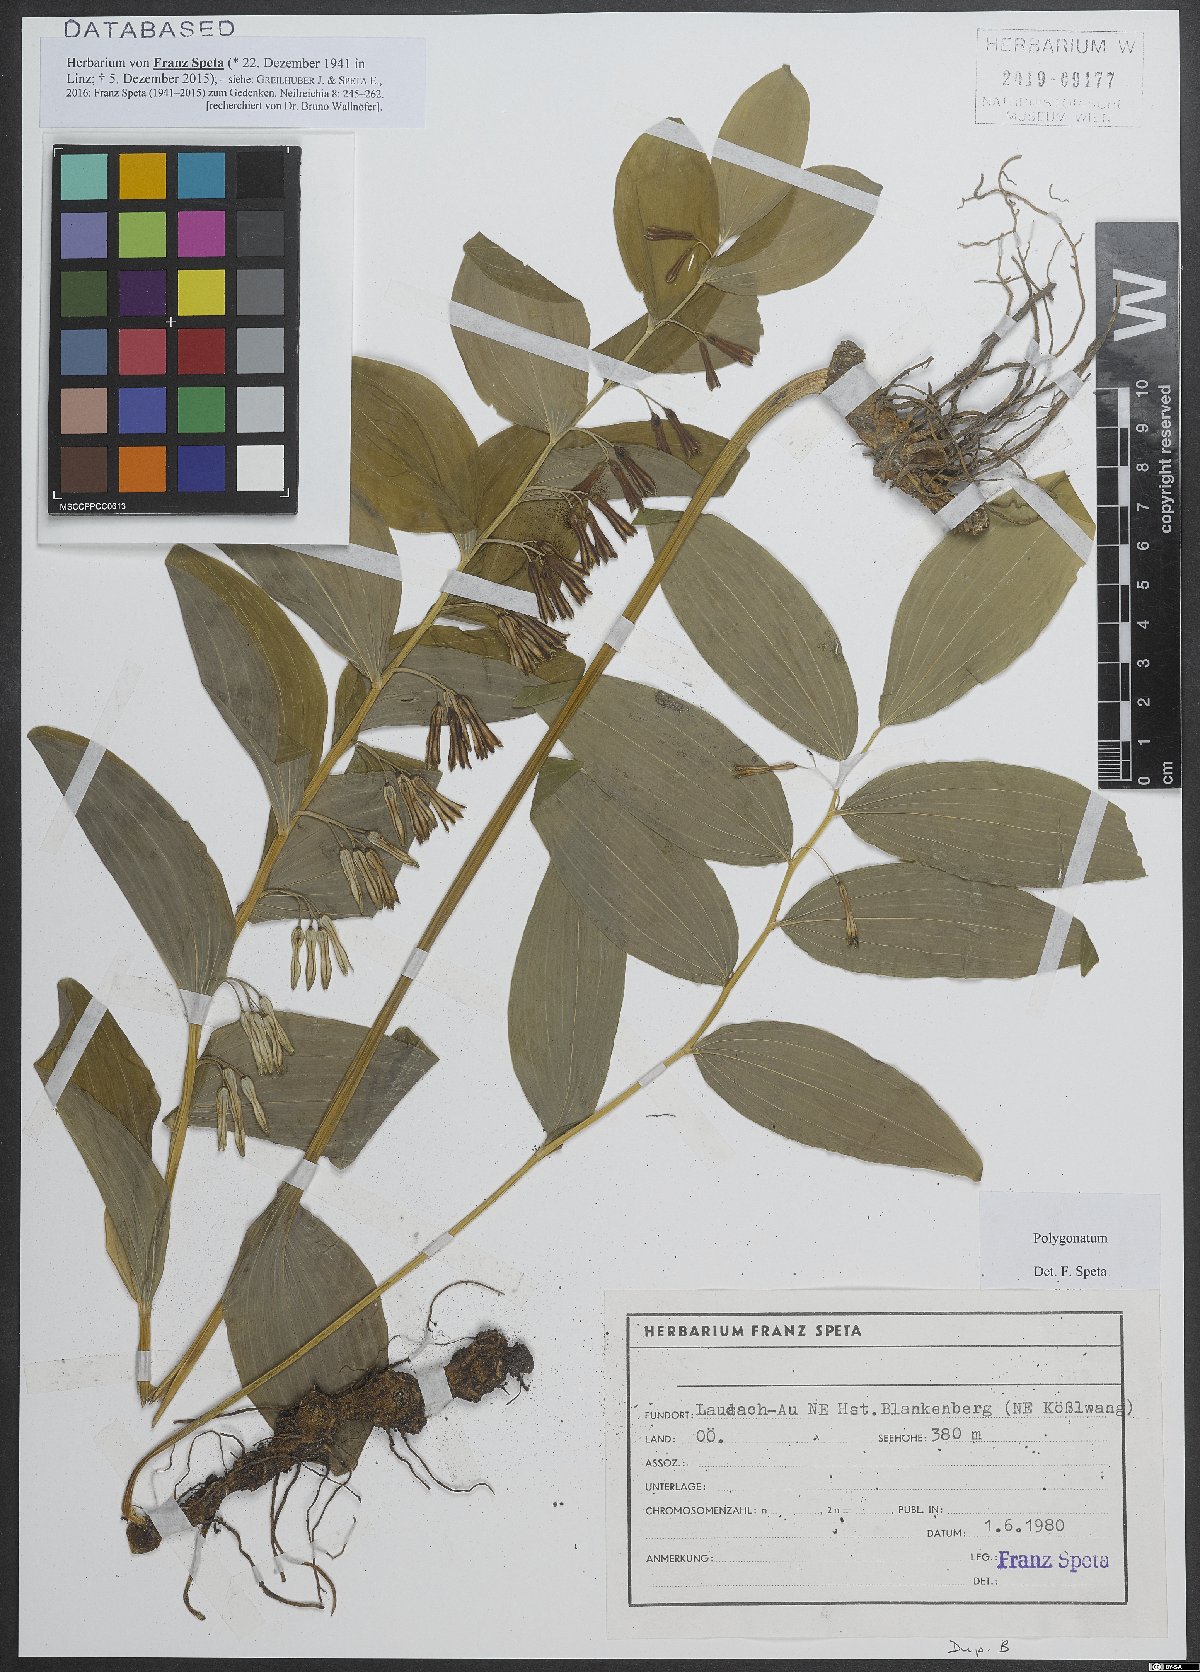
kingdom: Plantae
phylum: Tracheophyta
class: Liliopsida
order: Asparagales
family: Asparagaceae
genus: Polygonatum
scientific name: Polygonatum
